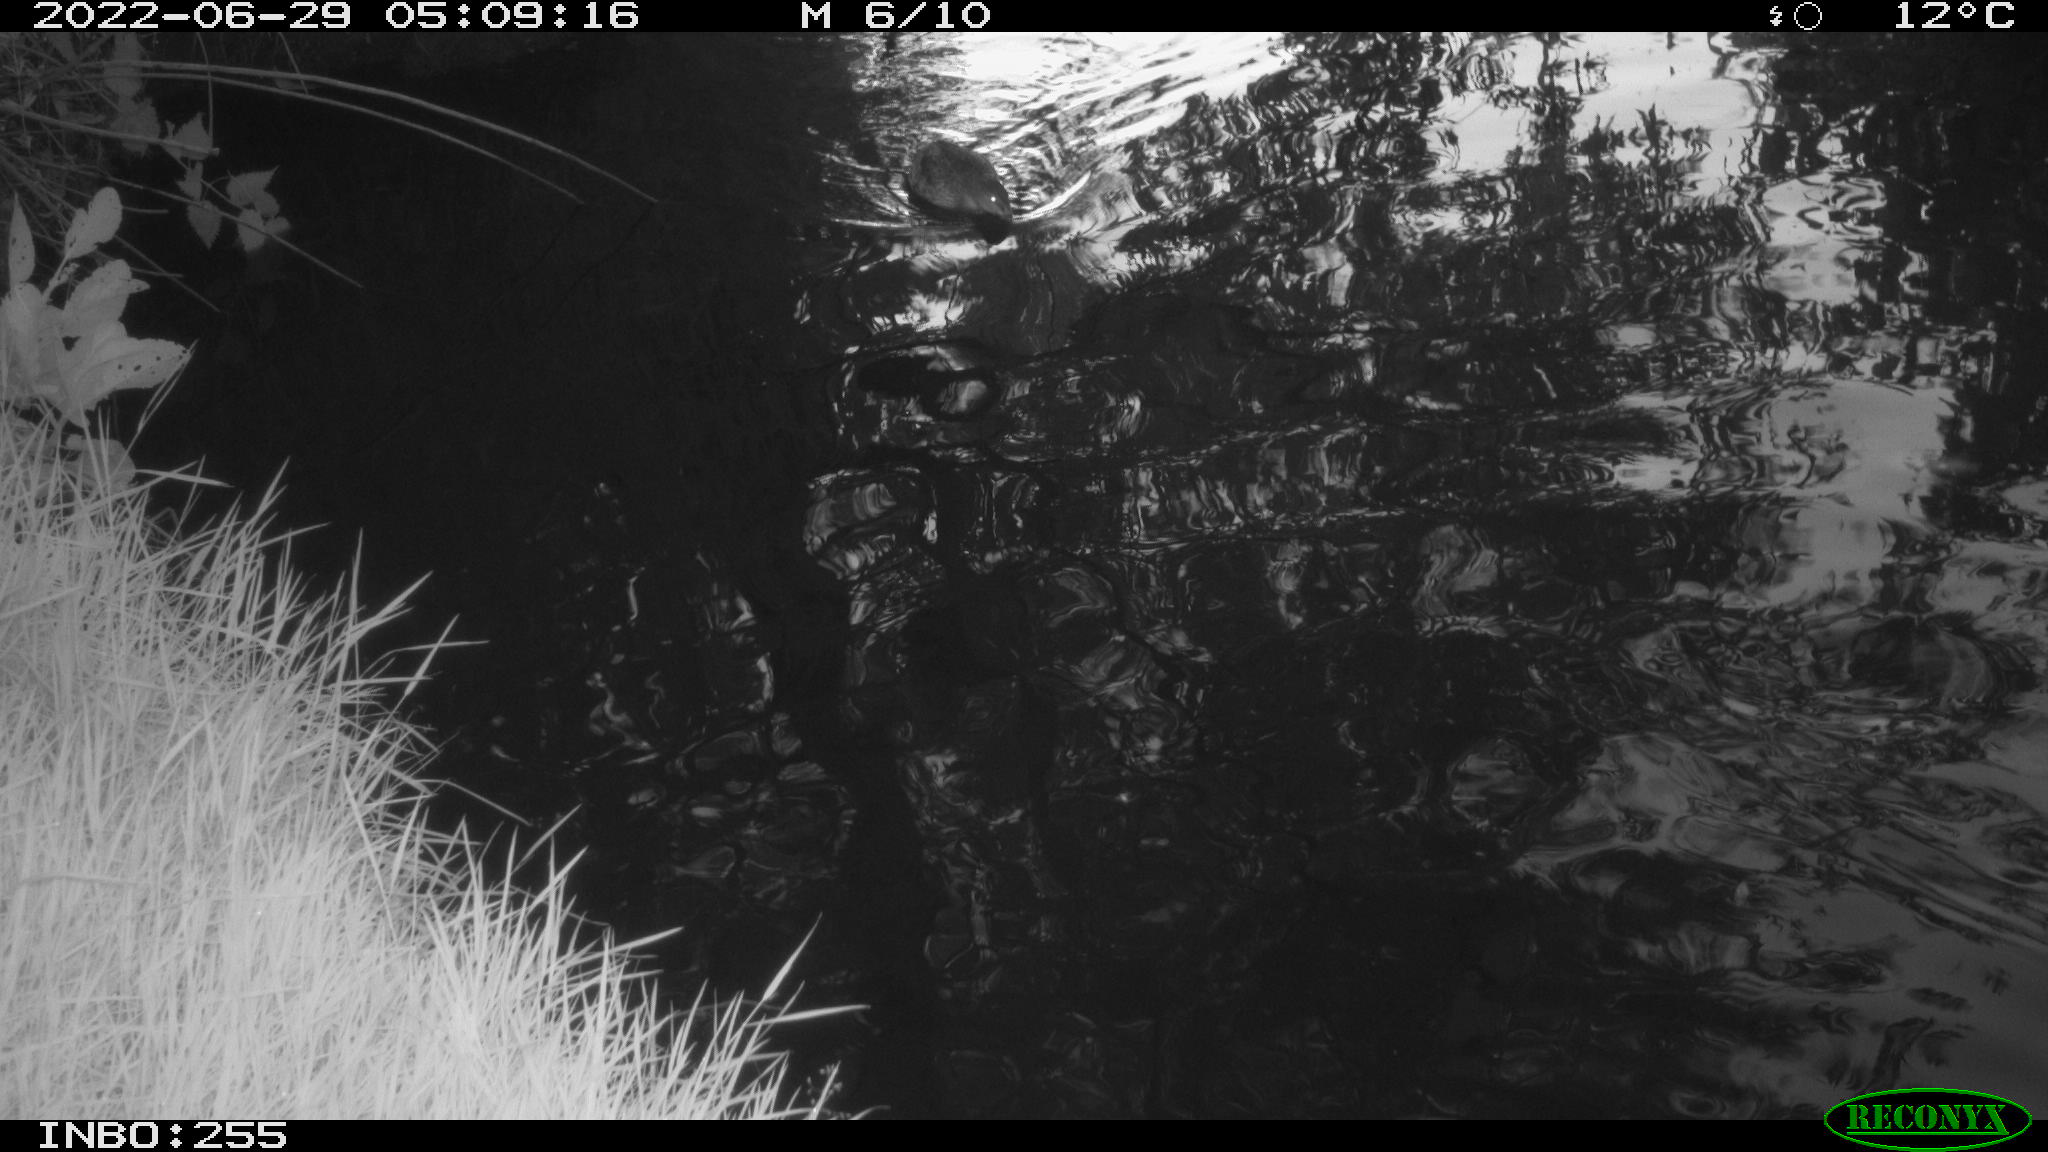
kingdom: Animalia
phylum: Chordata
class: Aves
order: Anseriformes
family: Anatidae
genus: Anas
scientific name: Anas platyrhynchos
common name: Mallard
